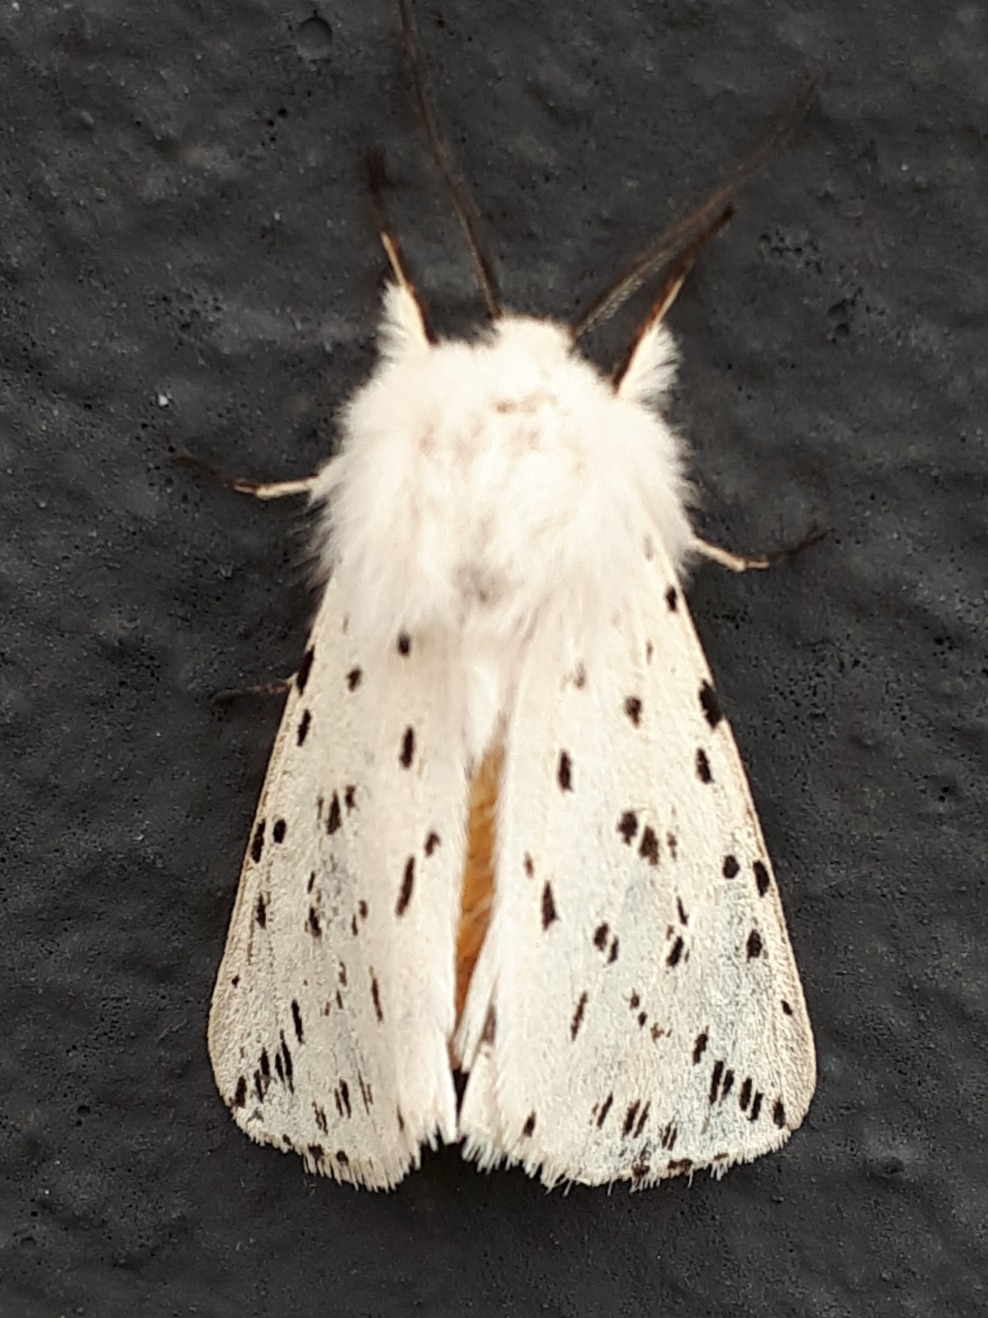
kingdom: Animalia
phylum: Arthropoda
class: Insecta
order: Lepidoptera
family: Erebidae
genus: Spilosoma
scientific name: Spilosoma lubricipeda
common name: Almindelig tigerspinder
